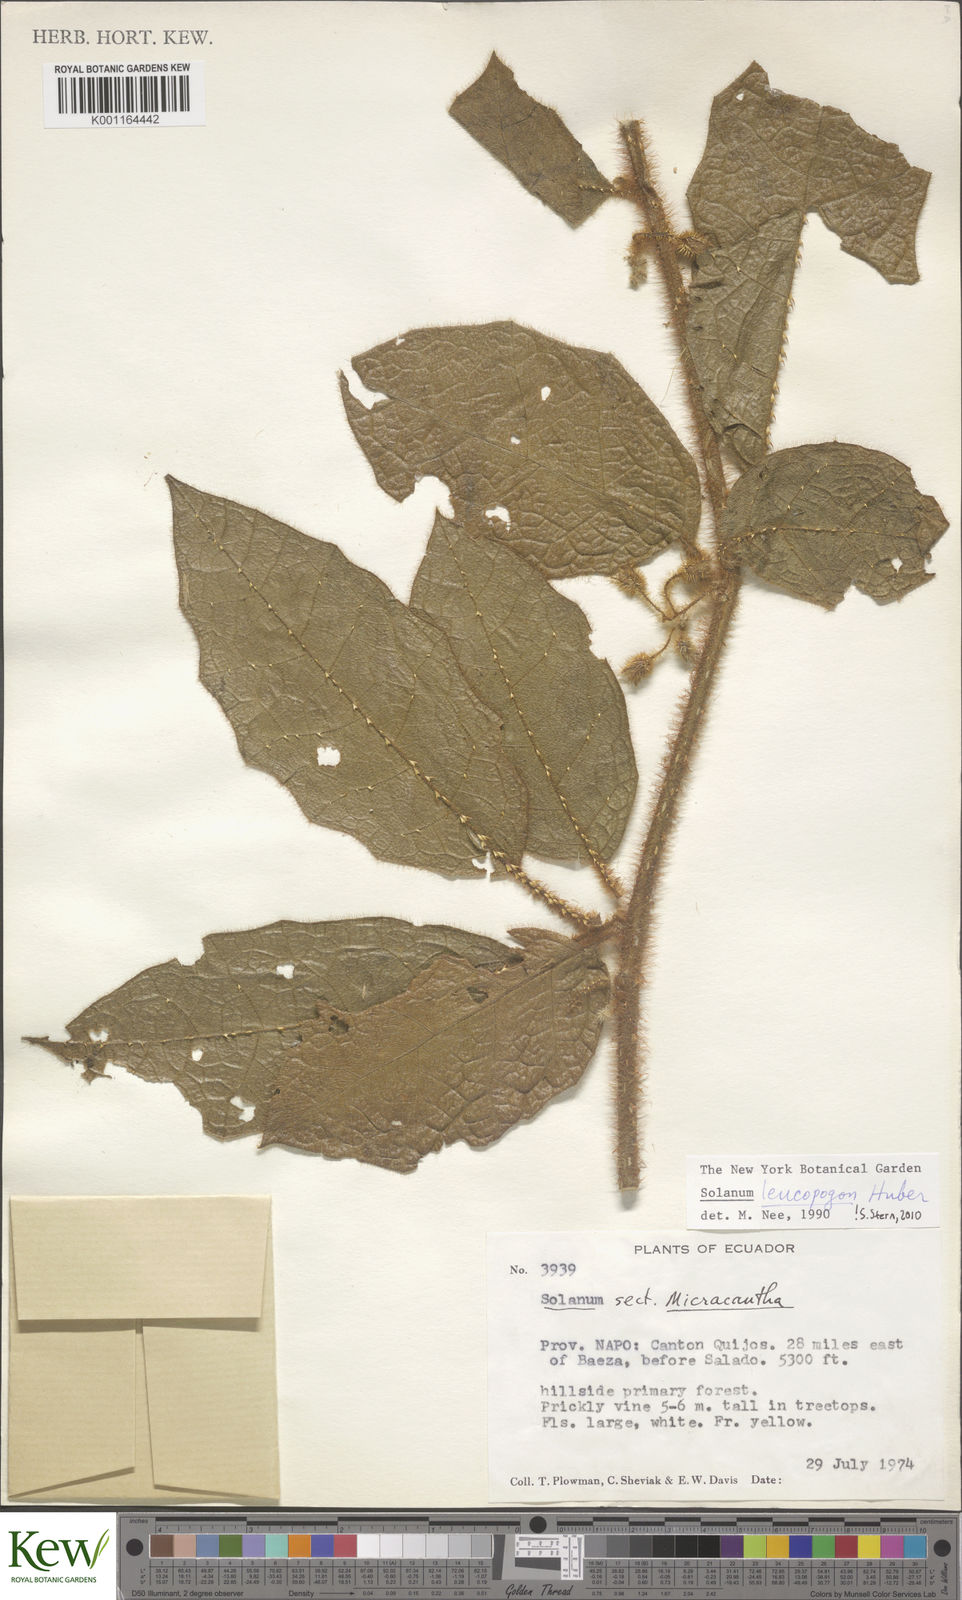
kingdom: Plantae
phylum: Tracheophyta
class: Magnoliopsida
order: Solanales
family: Solanaceae
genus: Solanum
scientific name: Solanum leucopogon
